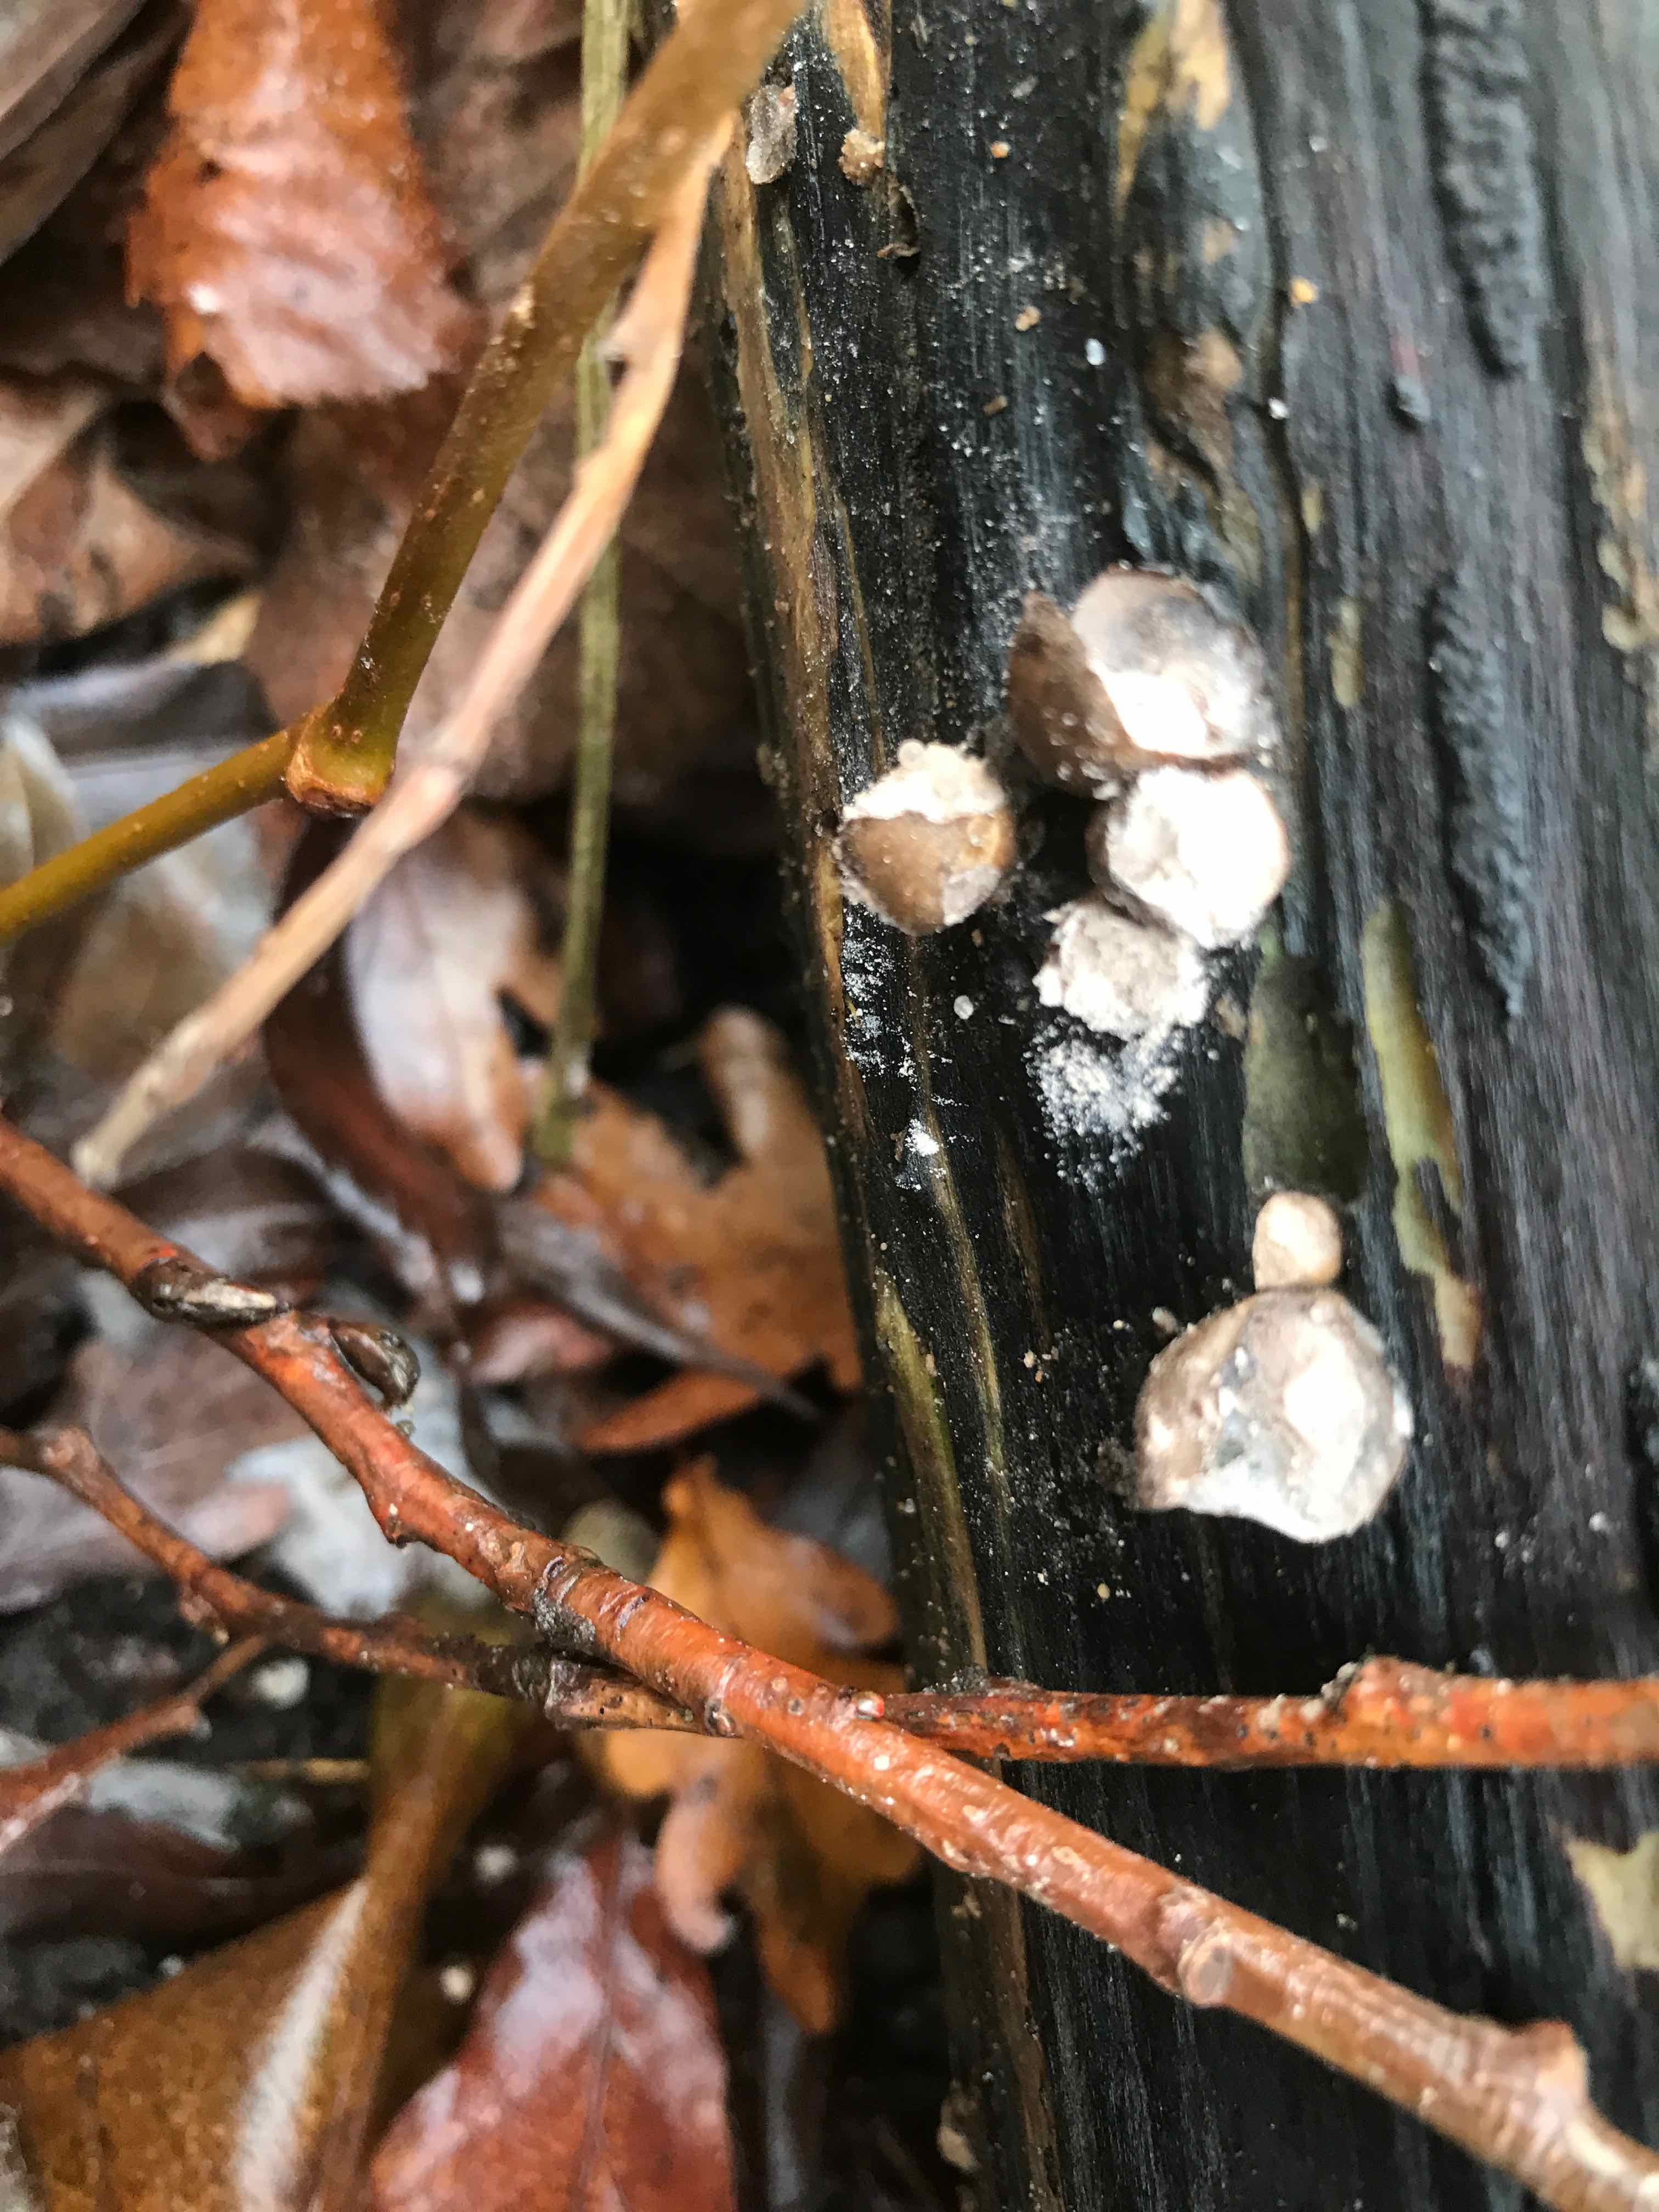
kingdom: Protozoa
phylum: Mycetozoa
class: Myxomycetes
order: Cribrariales
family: Tubiferaceae
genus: Lycogala
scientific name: Lycogala epidendrum
